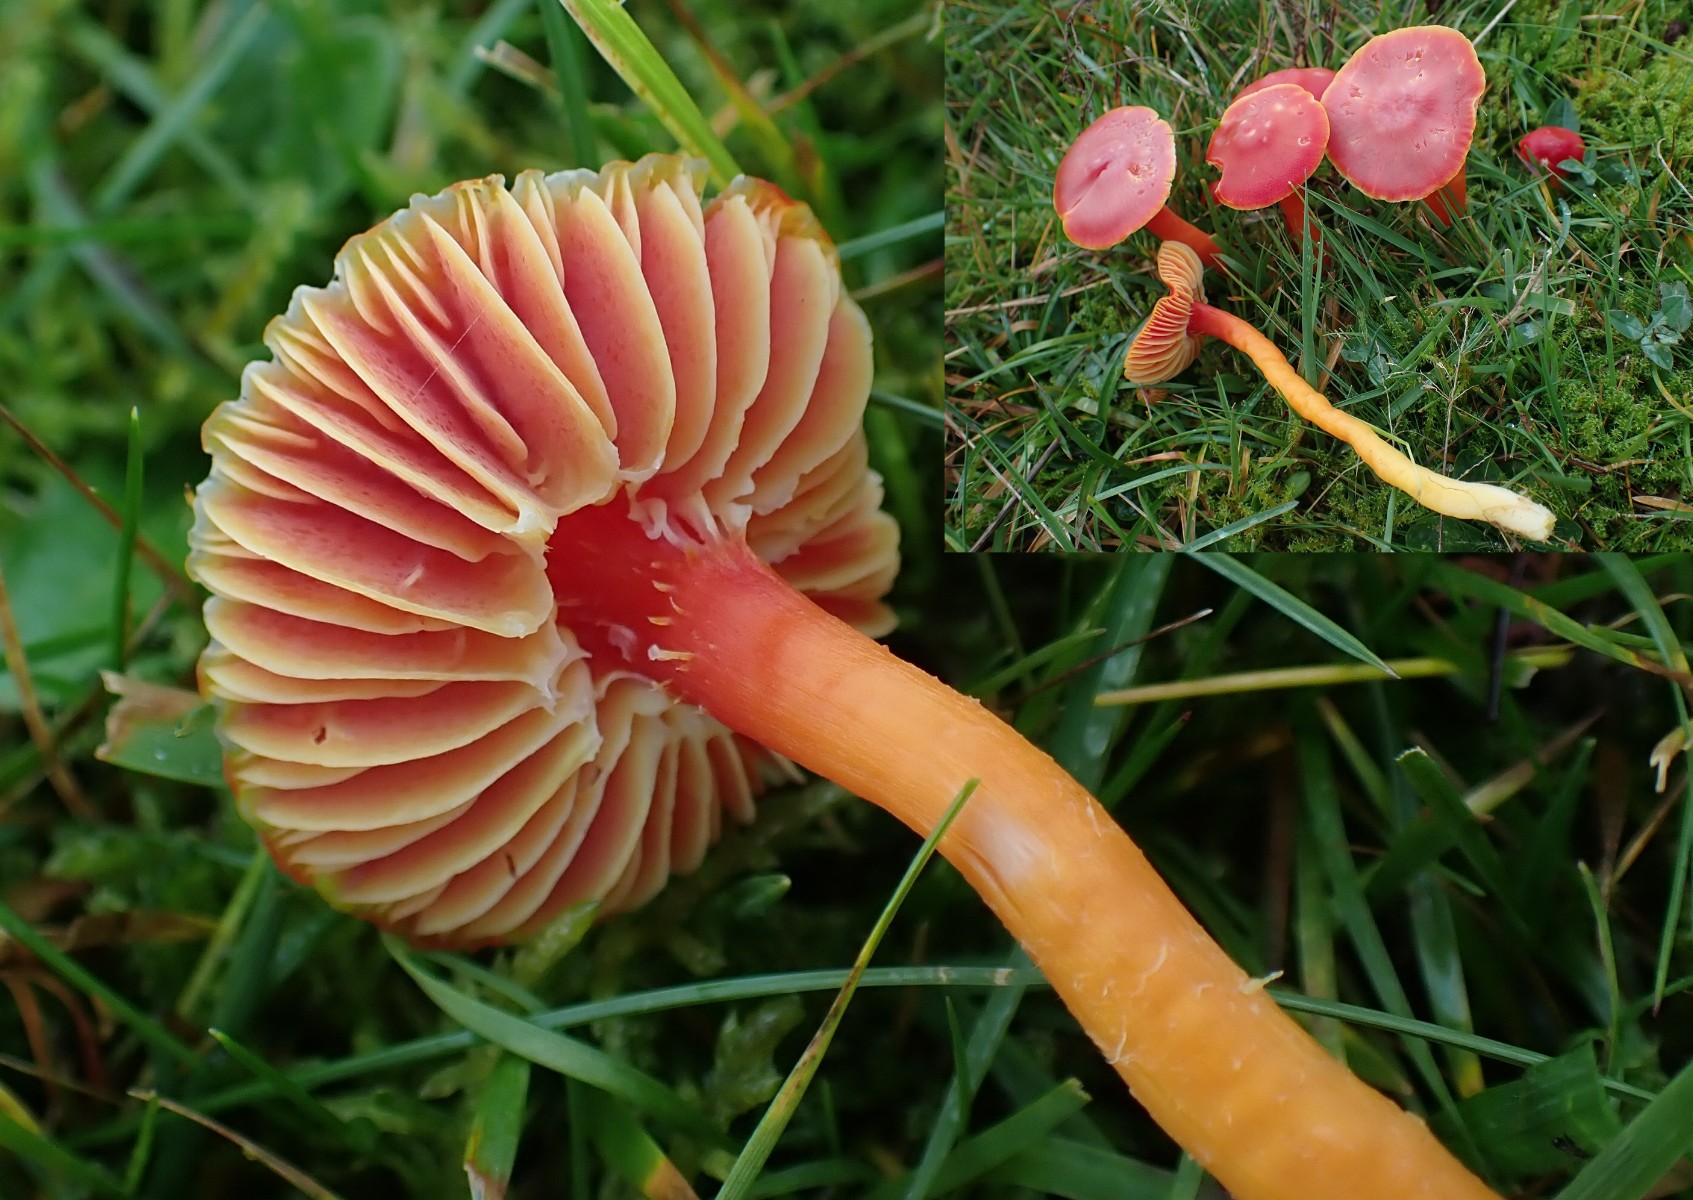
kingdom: Fungi
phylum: Basidiomycota
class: Agaricomycetes
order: Agaricales
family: Hygrophoraceae
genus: Hygrocybe
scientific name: Hygrocybe coccinea
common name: cinnober-vokshat
